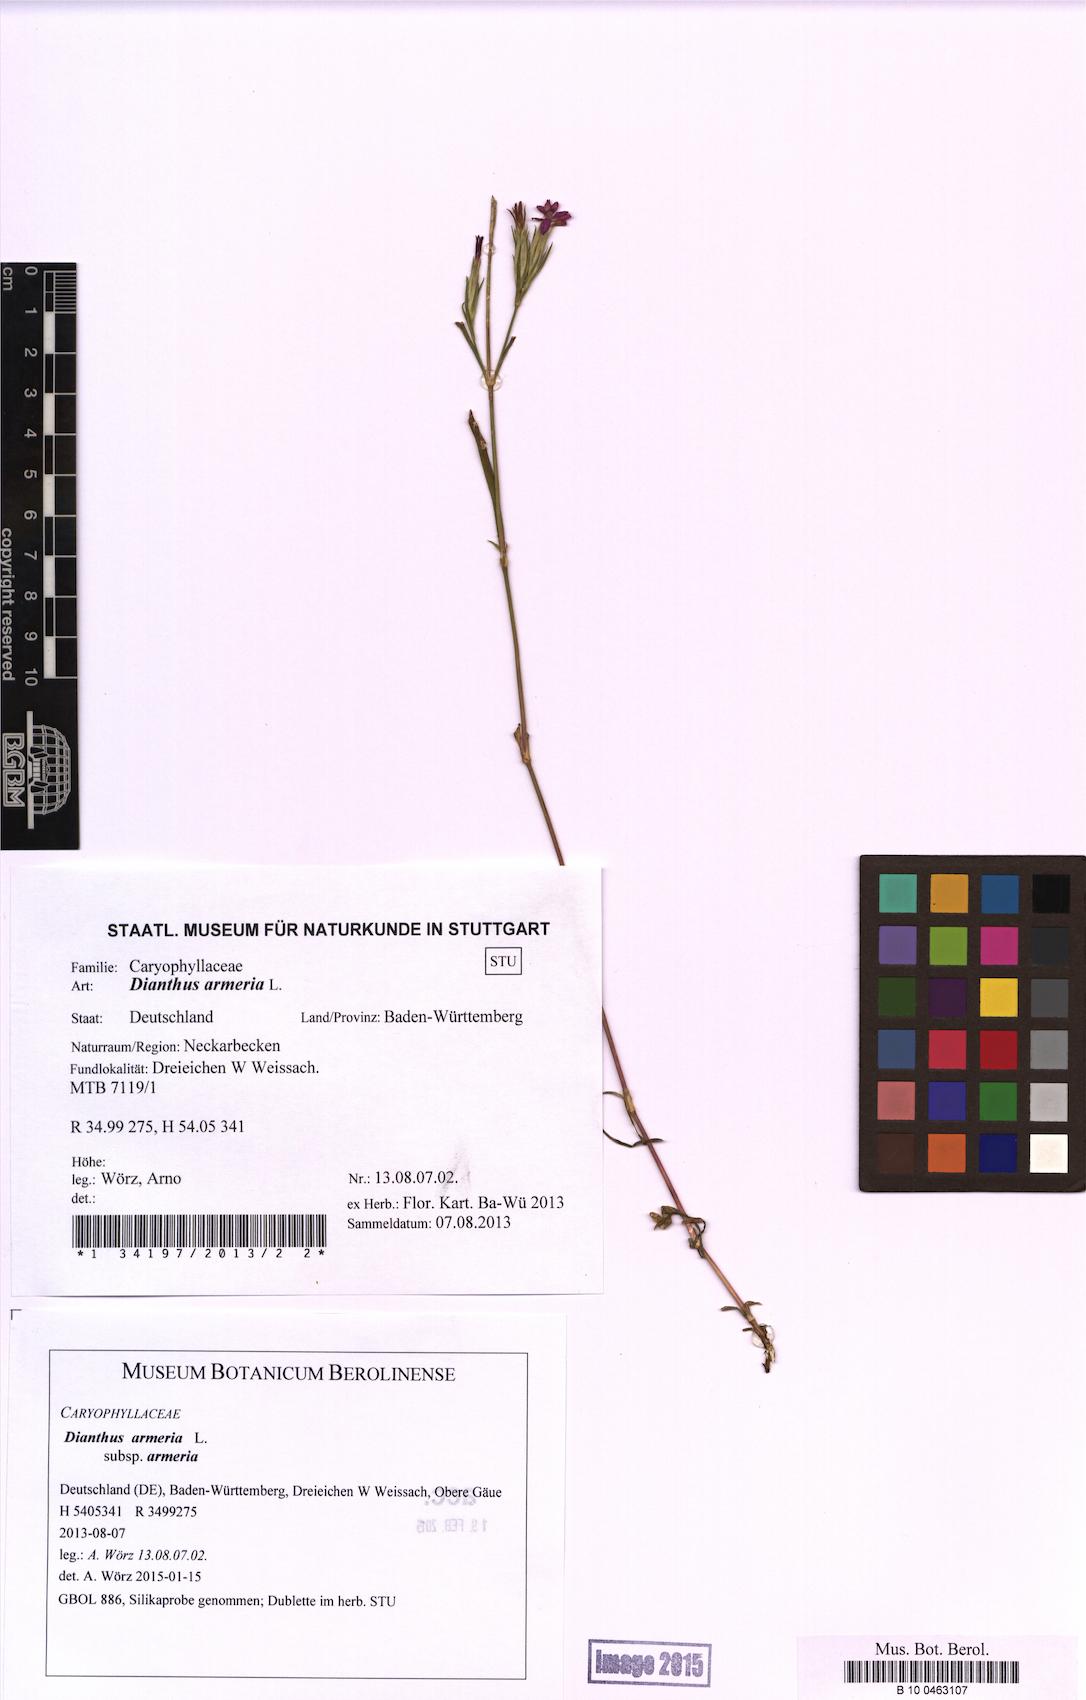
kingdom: Plantae
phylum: Tracheophyta
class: Magnoliopsida
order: Caryophyllales
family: Caryophyllaceae
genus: Dianthus
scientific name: Dianthus armeria
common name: Deptford pink
